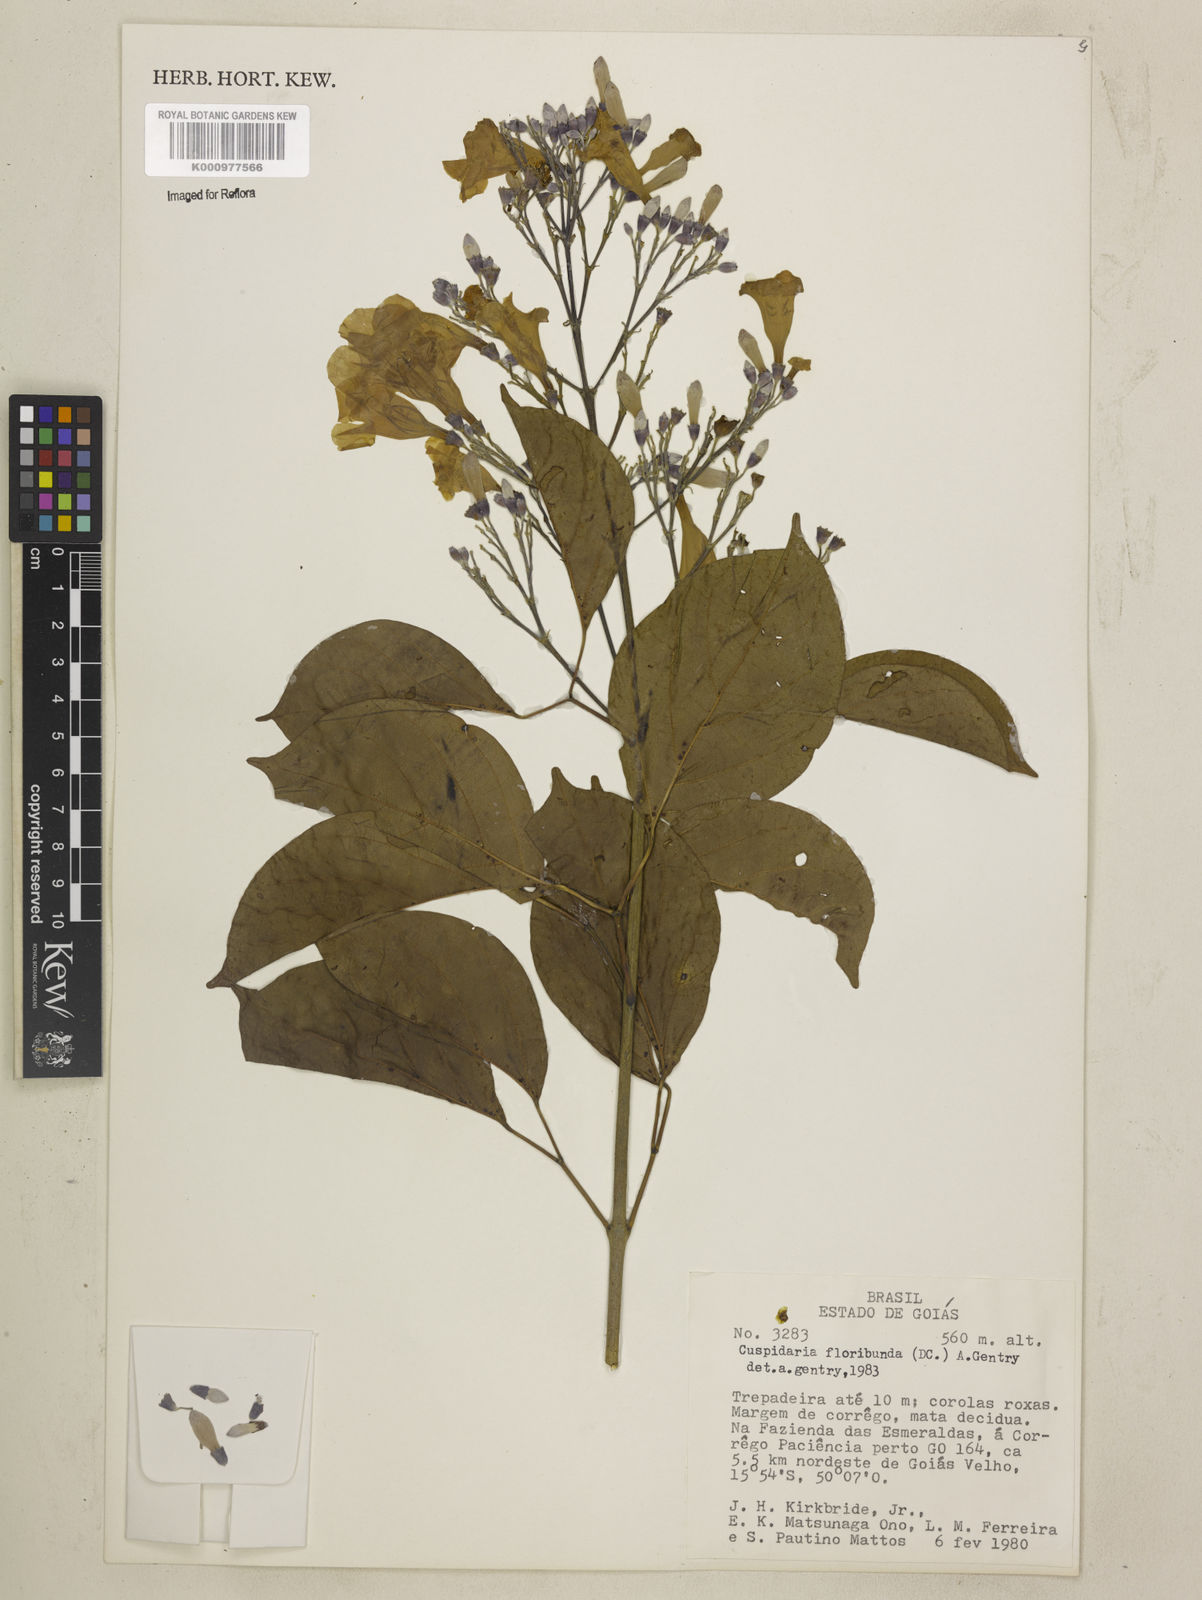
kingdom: Plantae
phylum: Tracheophyta
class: Magnoliopsida
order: Lamiales
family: Bignoniaceae
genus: Cuspidaria
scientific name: Cuspidaria floribunda
